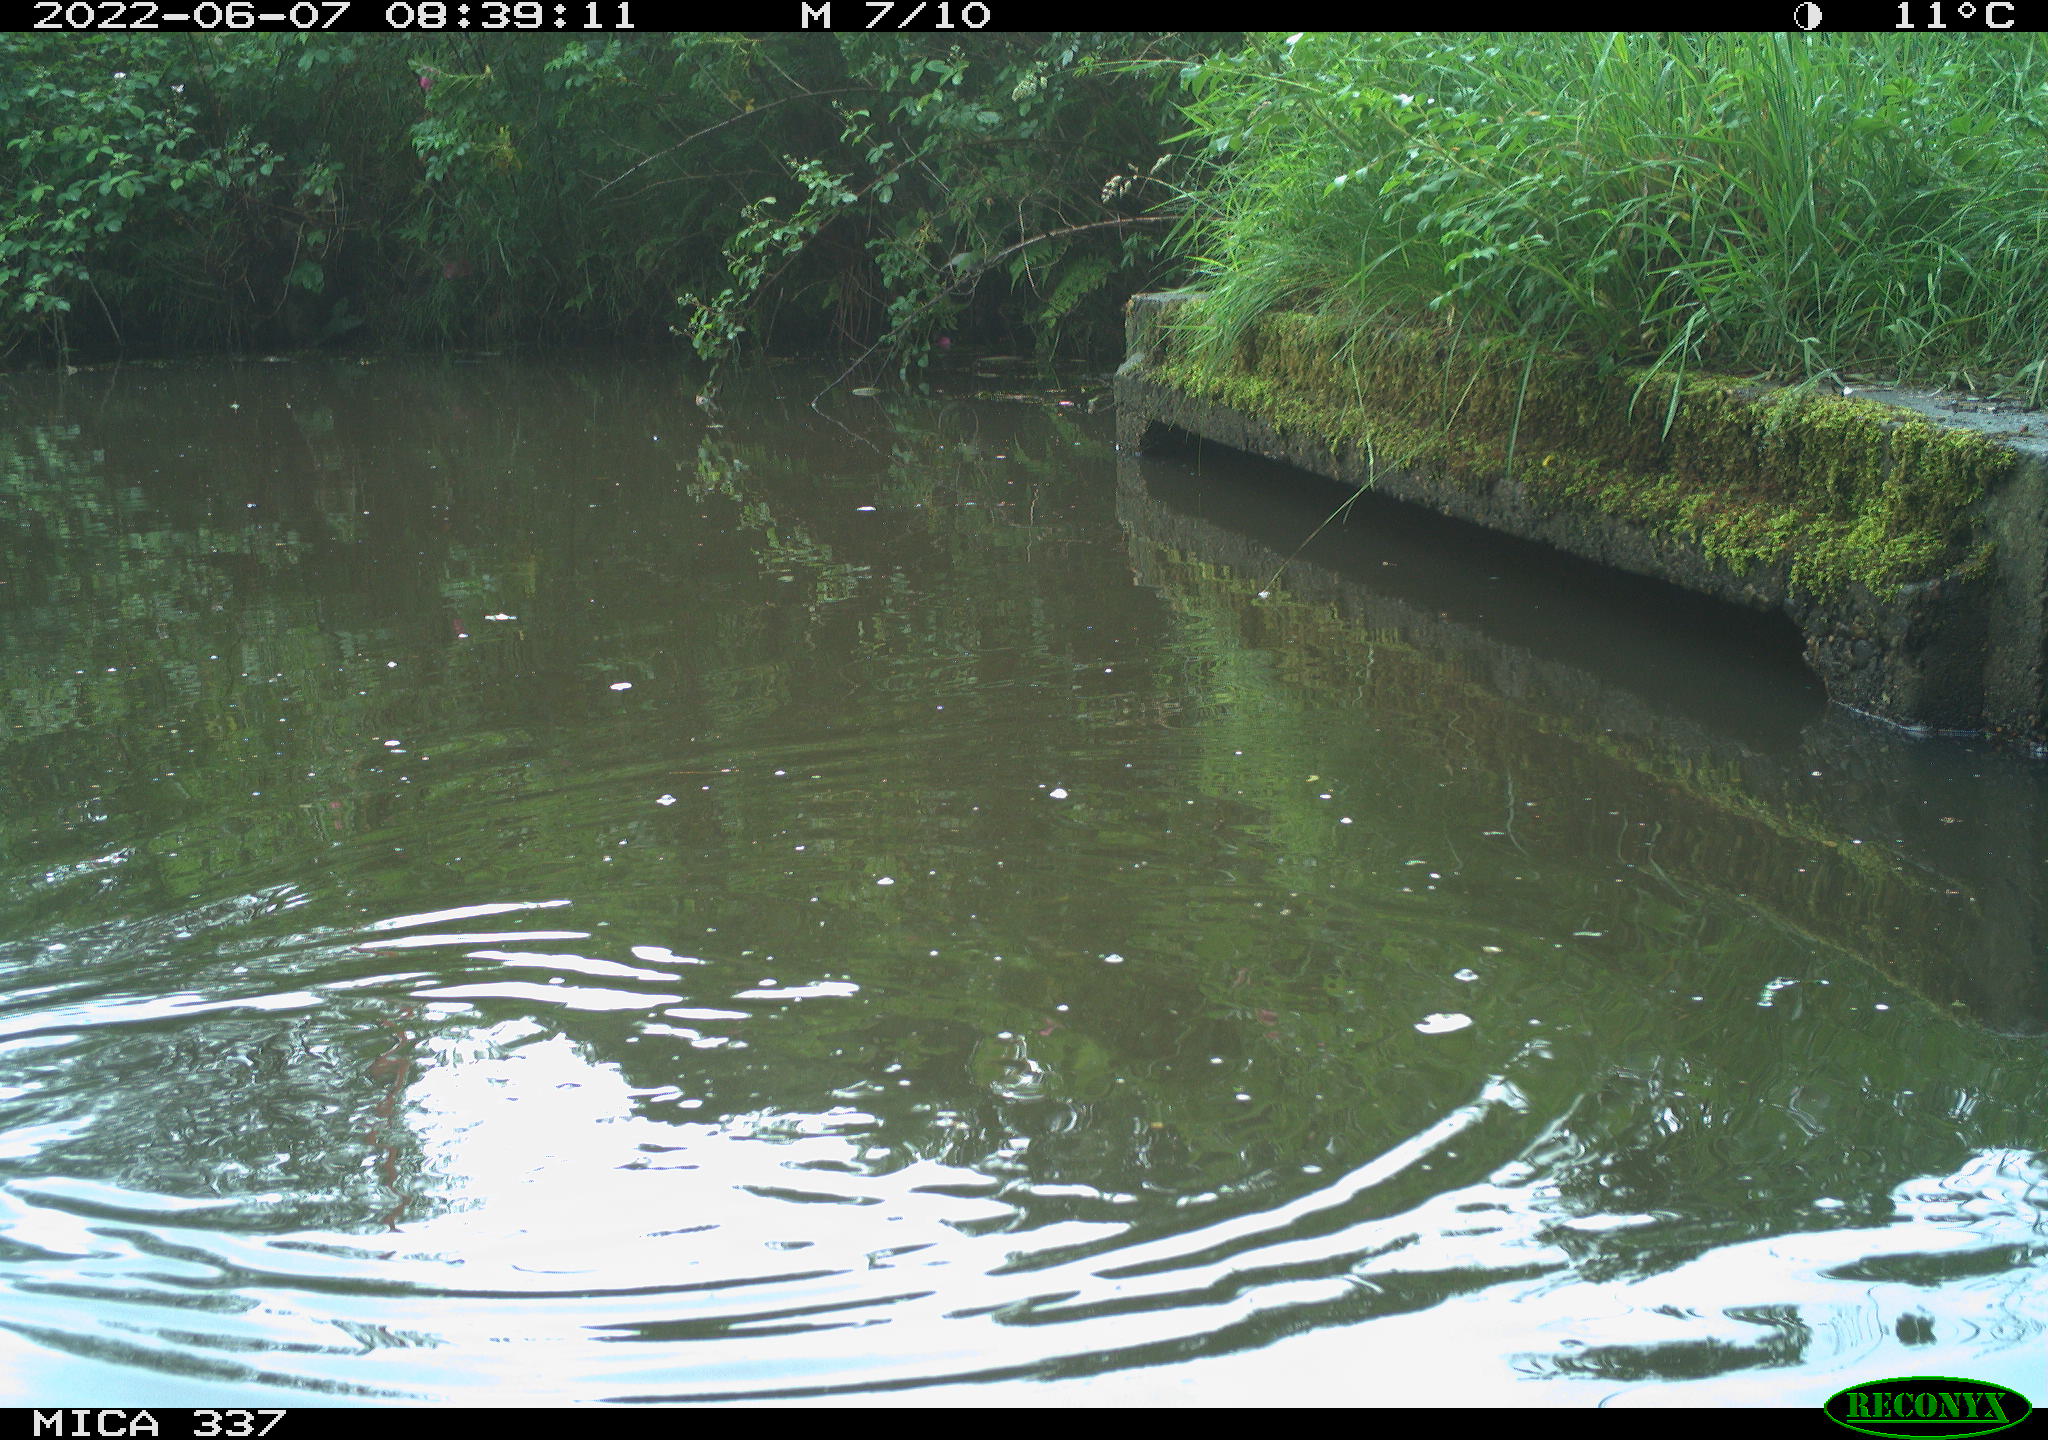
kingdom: Animalia
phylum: Chordata
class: Aves
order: Gruiformes
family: Rallidae
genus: Gallinula
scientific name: Gallinula chloropus
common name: Common moorhen
